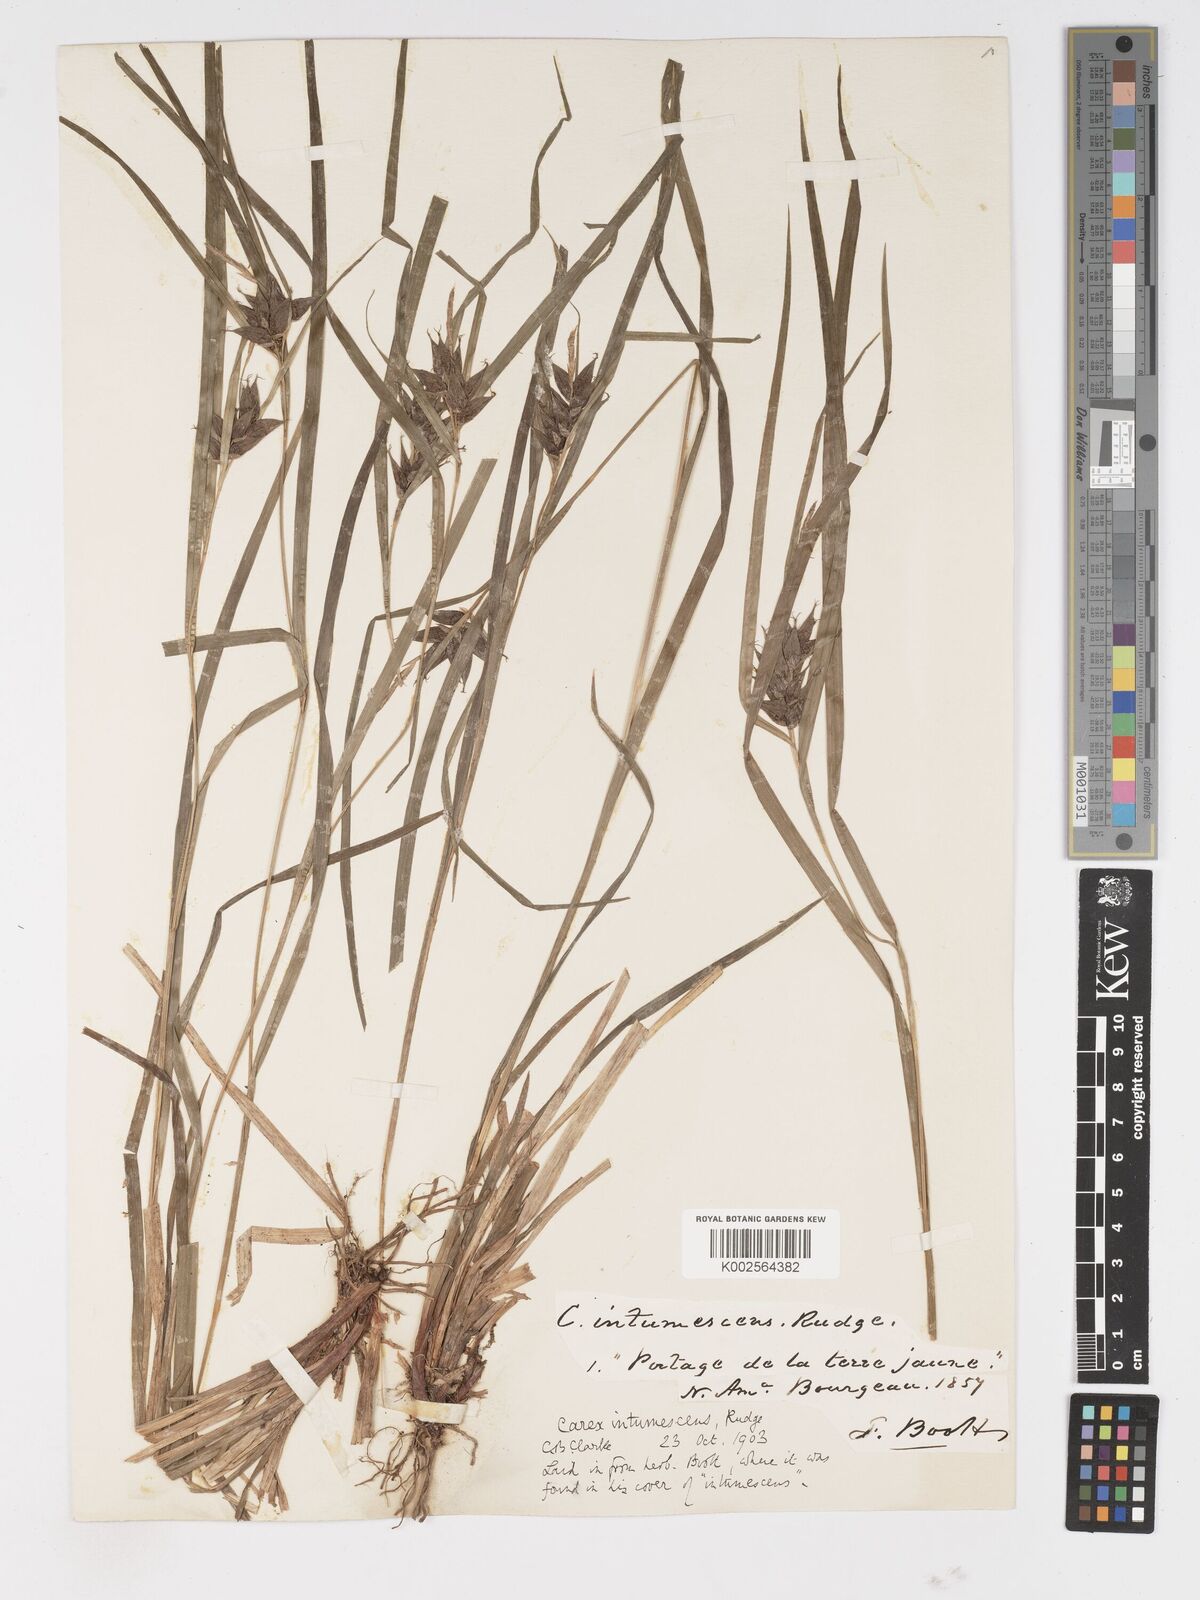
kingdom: Plantae
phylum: Tracheophyta
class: Liliopsida
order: Poales
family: Cyperaceae
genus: Carex
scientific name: Carex intumescens
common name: Greater bladder sedge
